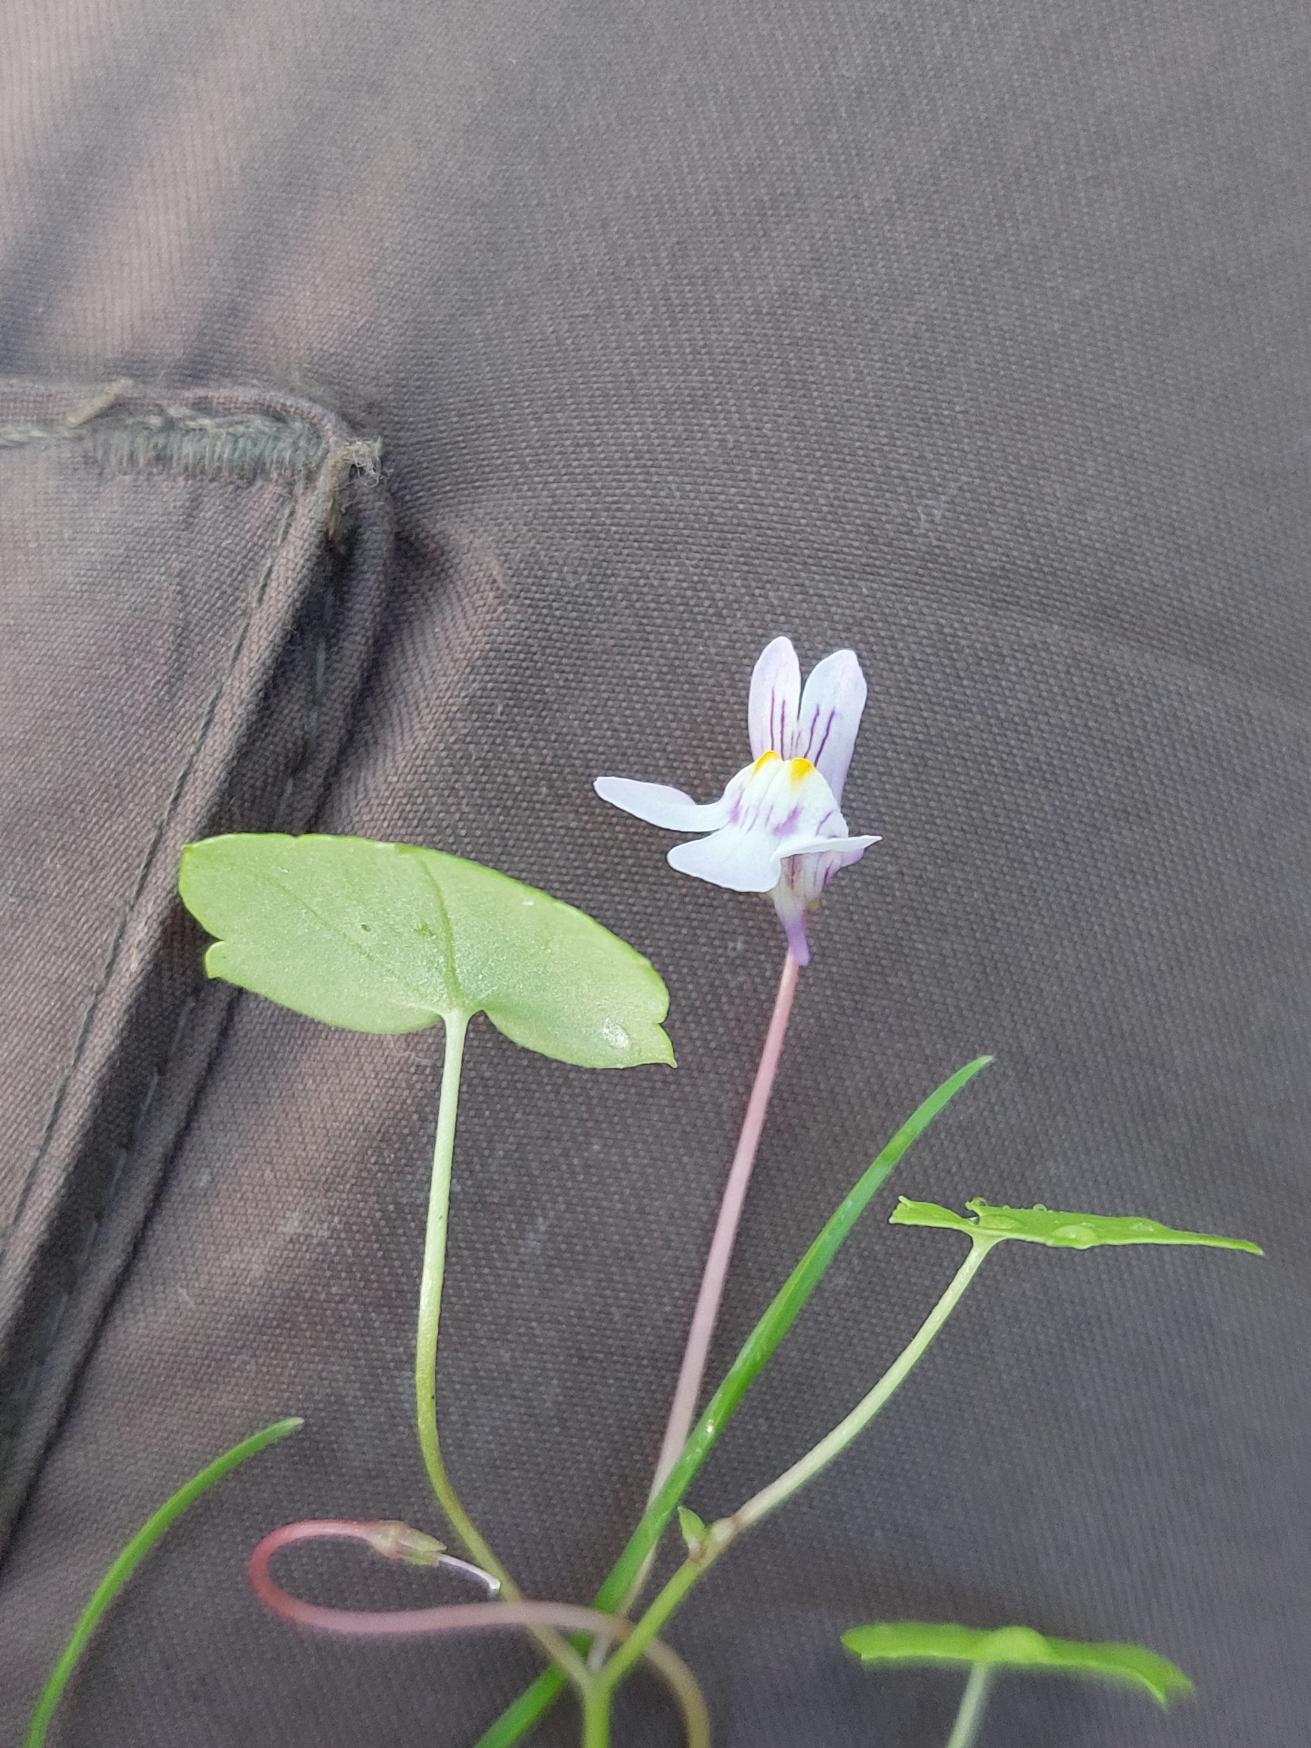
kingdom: Plantae
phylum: Tracheophyta
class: Magnoliopsida
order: Lamiales
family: Plantaginaceae
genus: Cymbalaria
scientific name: Cymbalaria muralis
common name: Vedbend-torskemund
